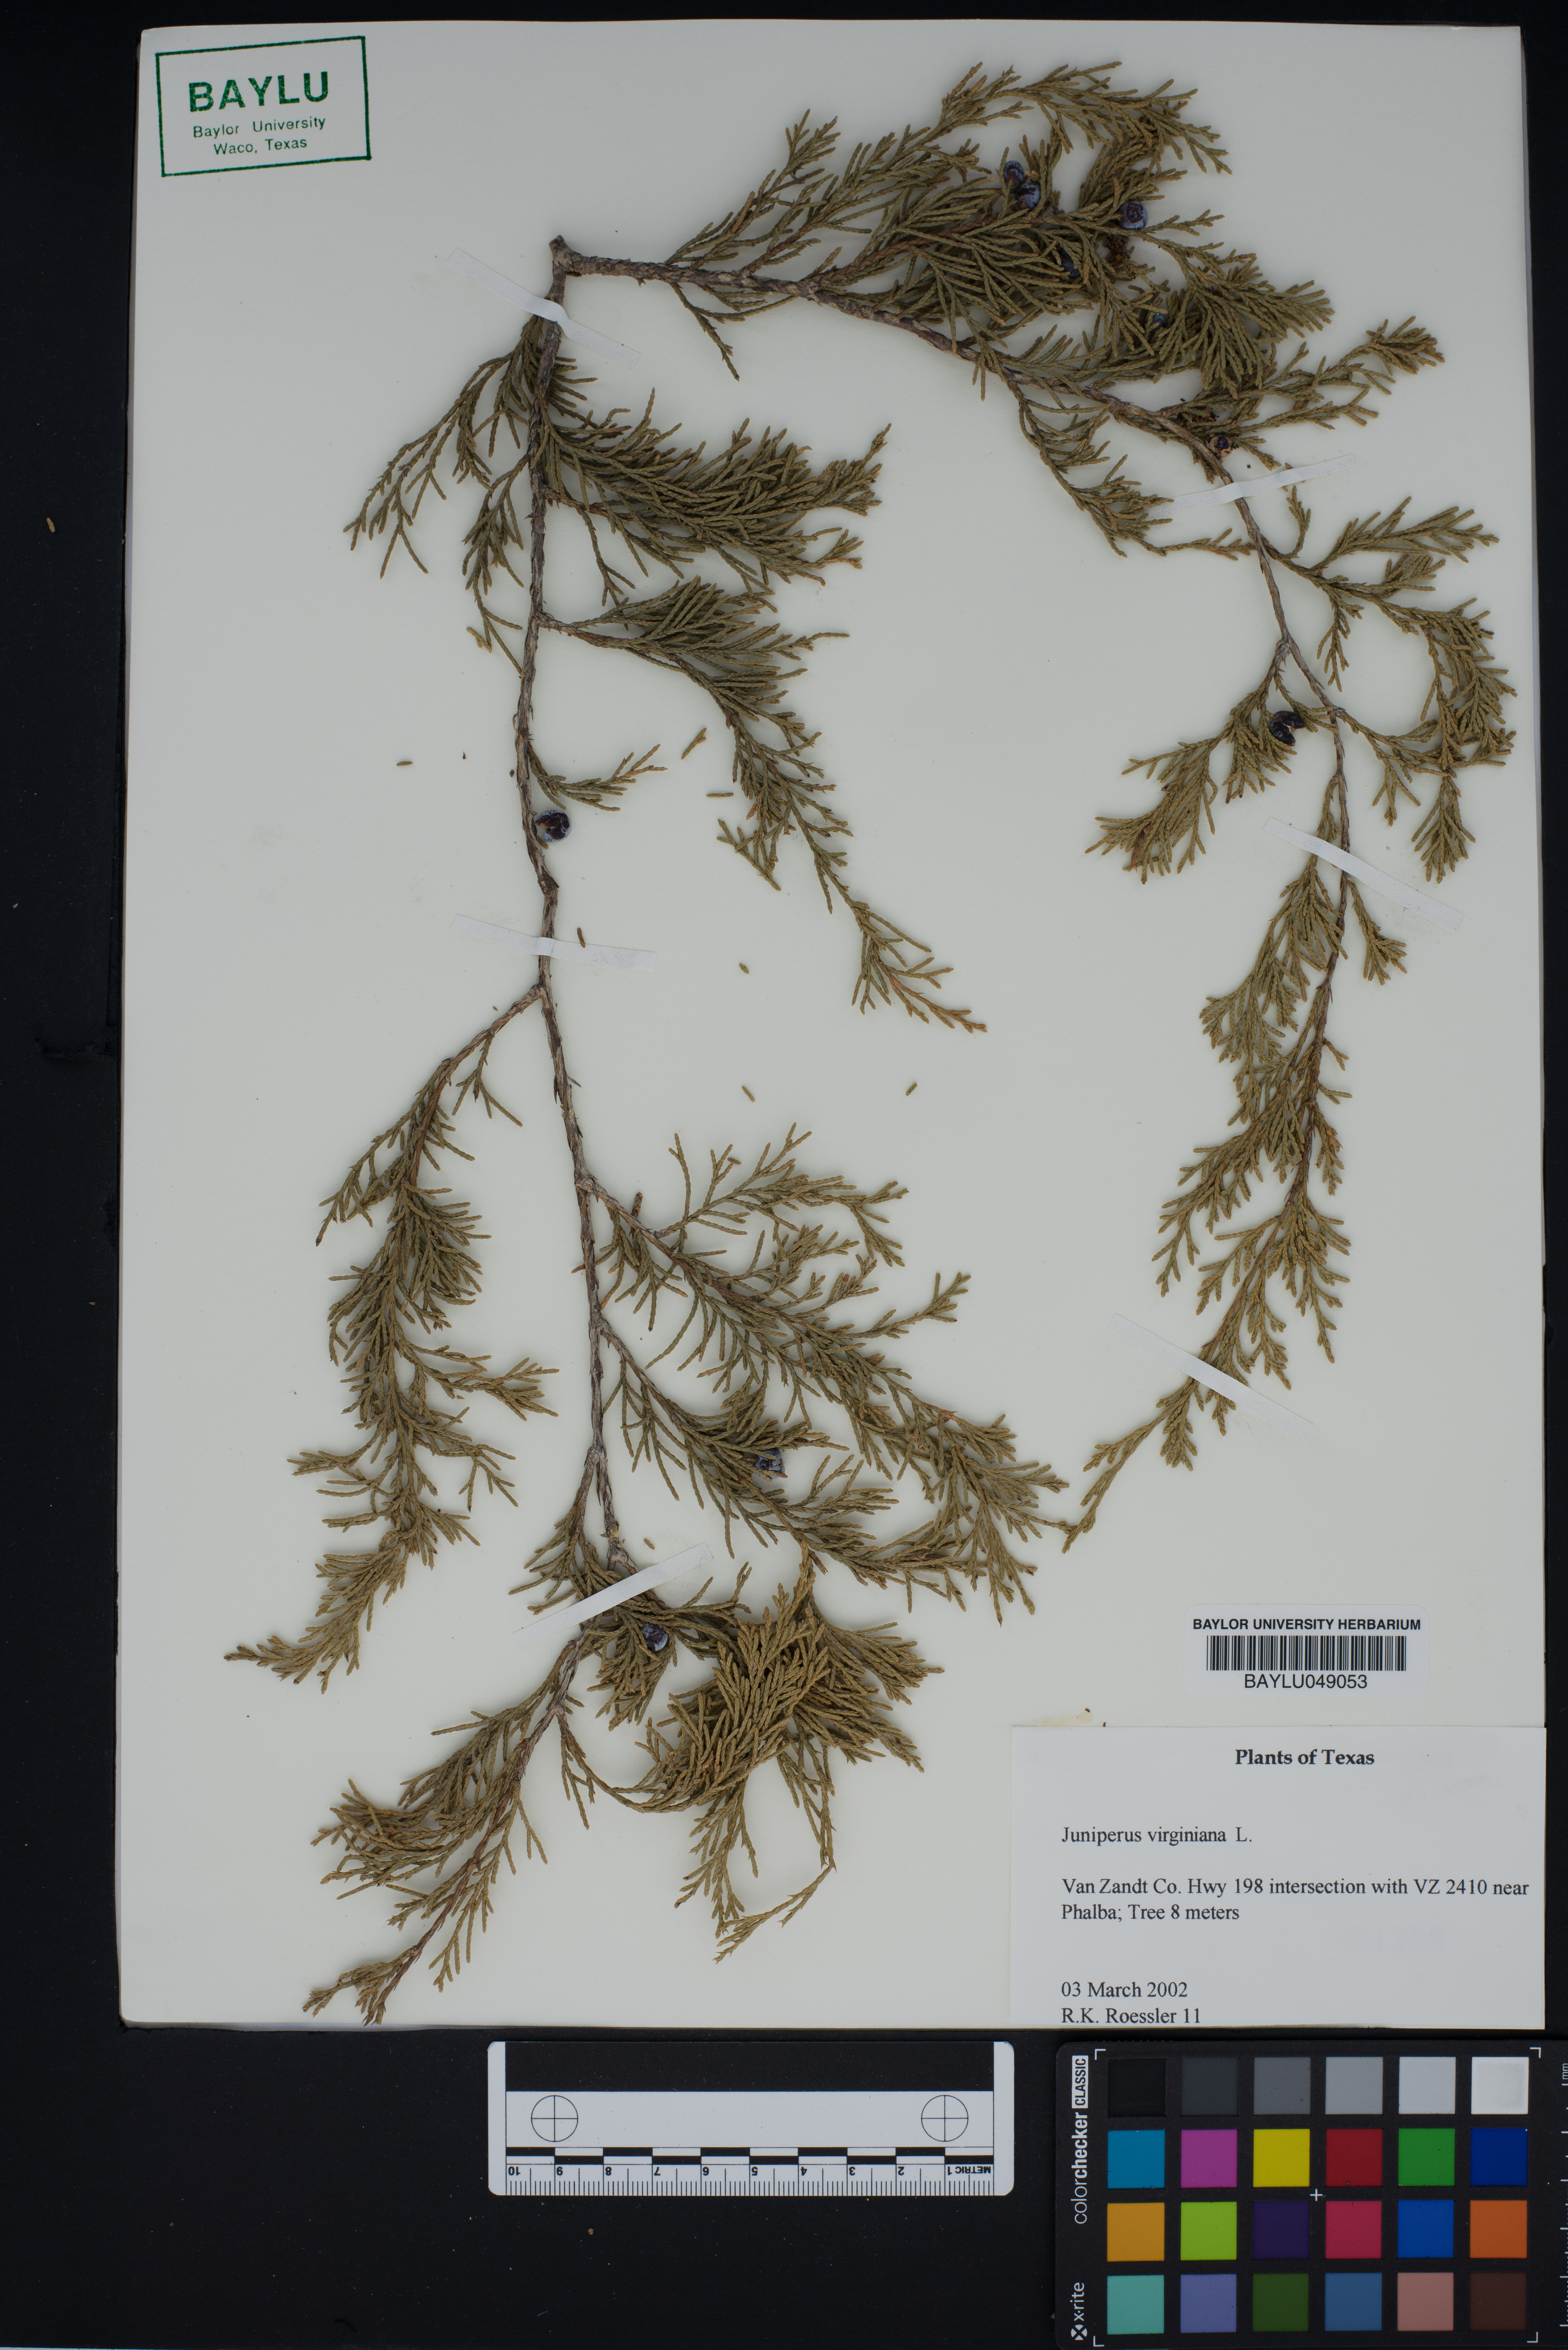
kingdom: Plantae
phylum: Tracheophyta
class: Pinopsida
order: Pinales
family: Cupressaceae
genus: Juniperus
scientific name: Juniperus virginiana
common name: Red juniper
